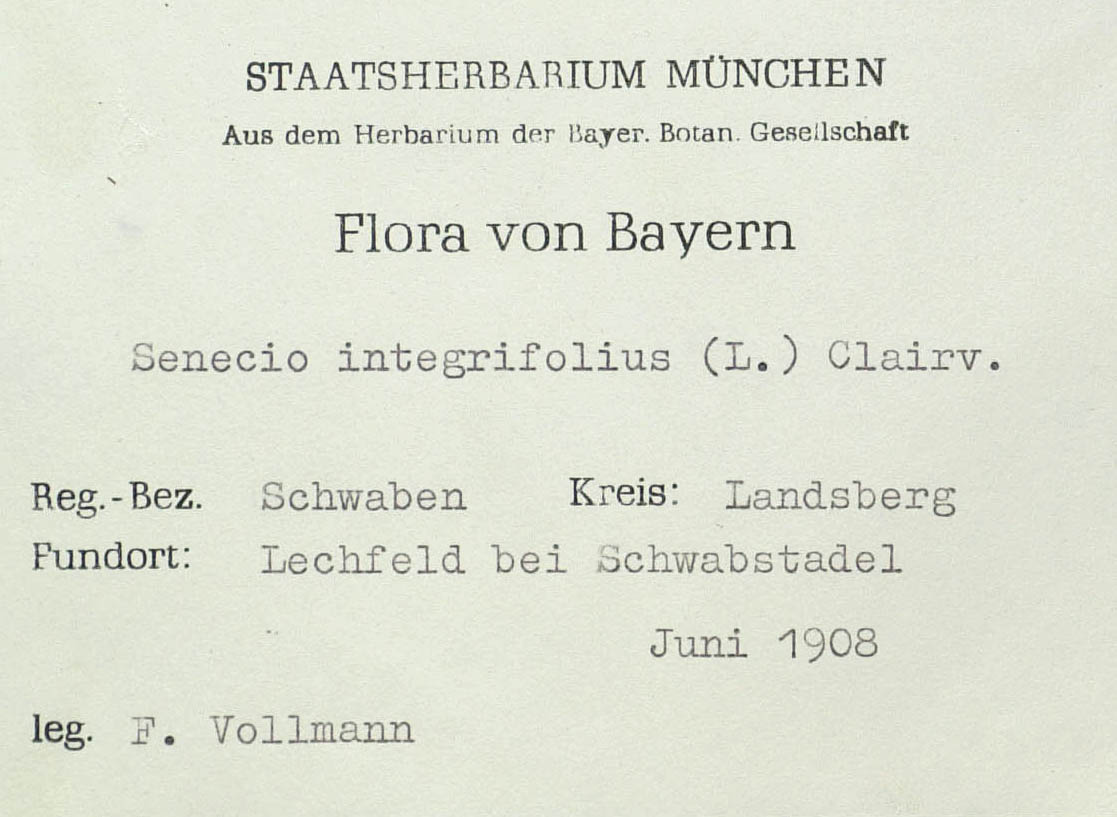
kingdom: Plantae
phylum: Tracheophyta
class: Magnoliopsida
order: Asterales
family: Asteraceae
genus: Tephroseris
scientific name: Tephroseris integrifolia
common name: Field fleawort
